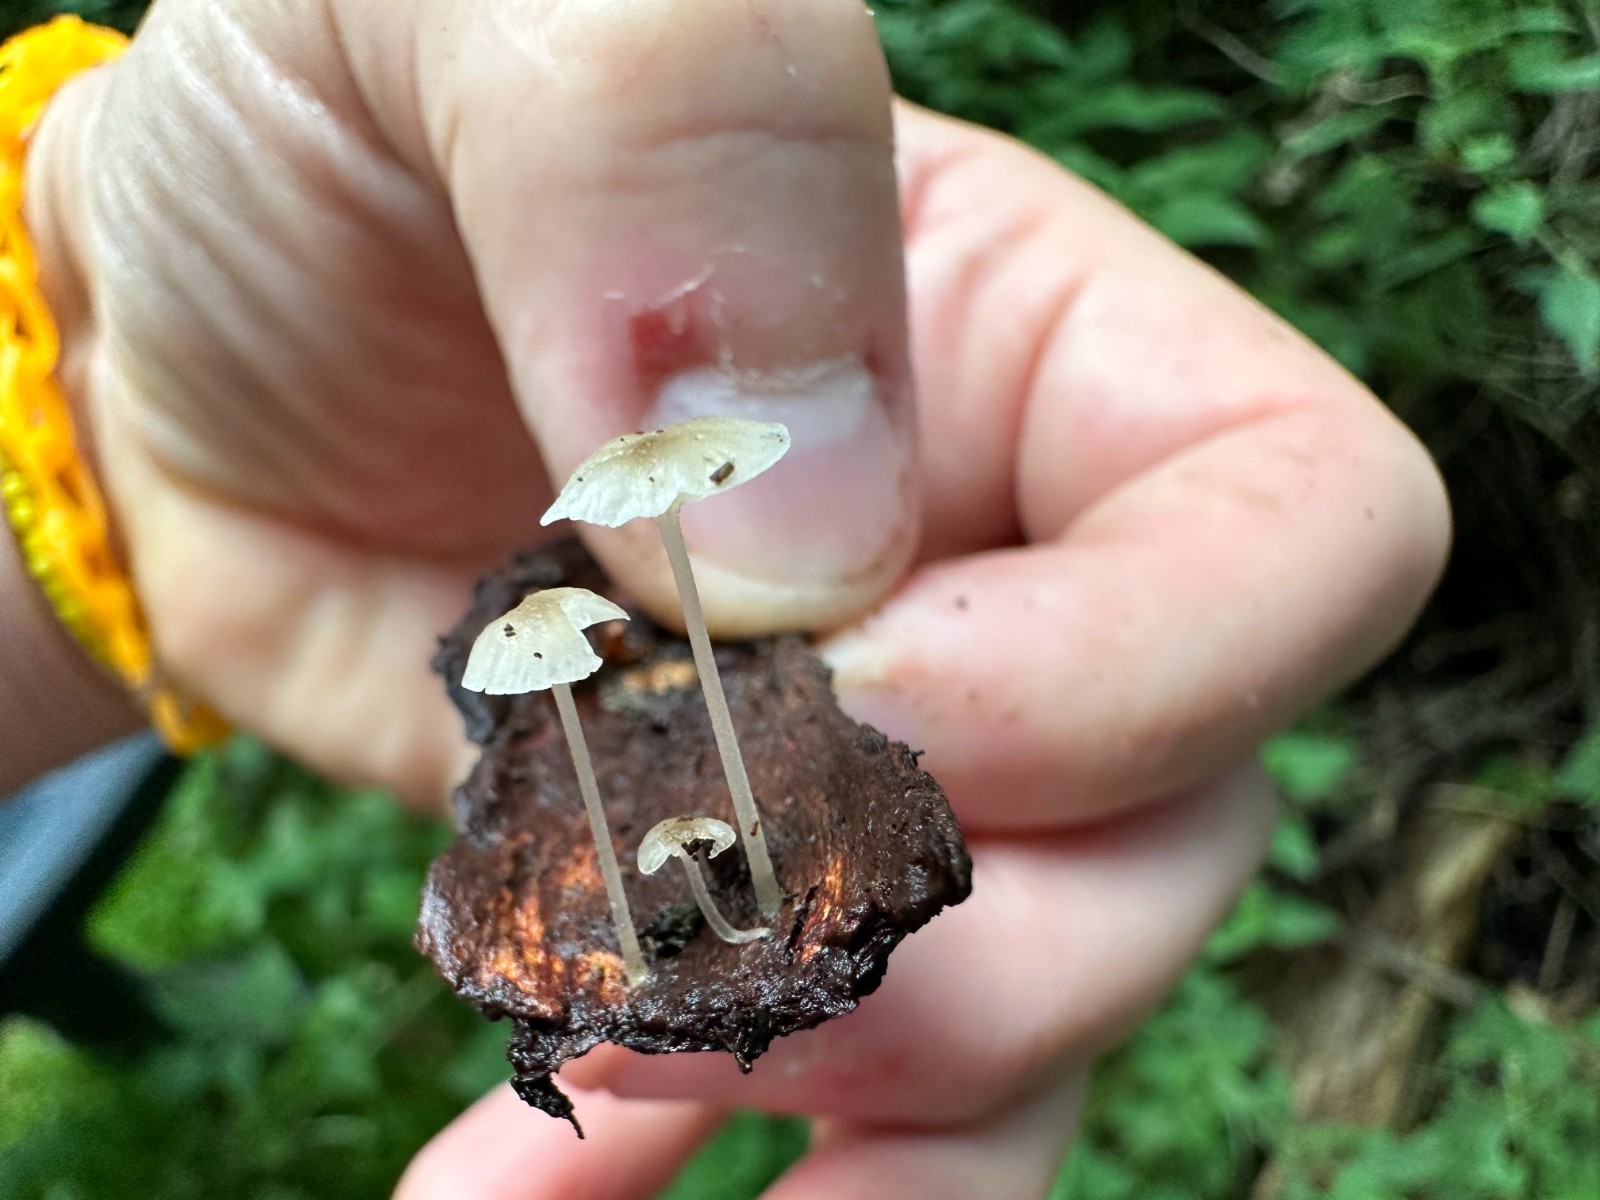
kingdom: Fungi
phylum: Basidiomycota
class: Agaricomycetes
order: Agaricales
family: Porotheleaceae
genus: Phloeomana
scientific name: Phloeomana speirea
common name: kvist-huesvamp
